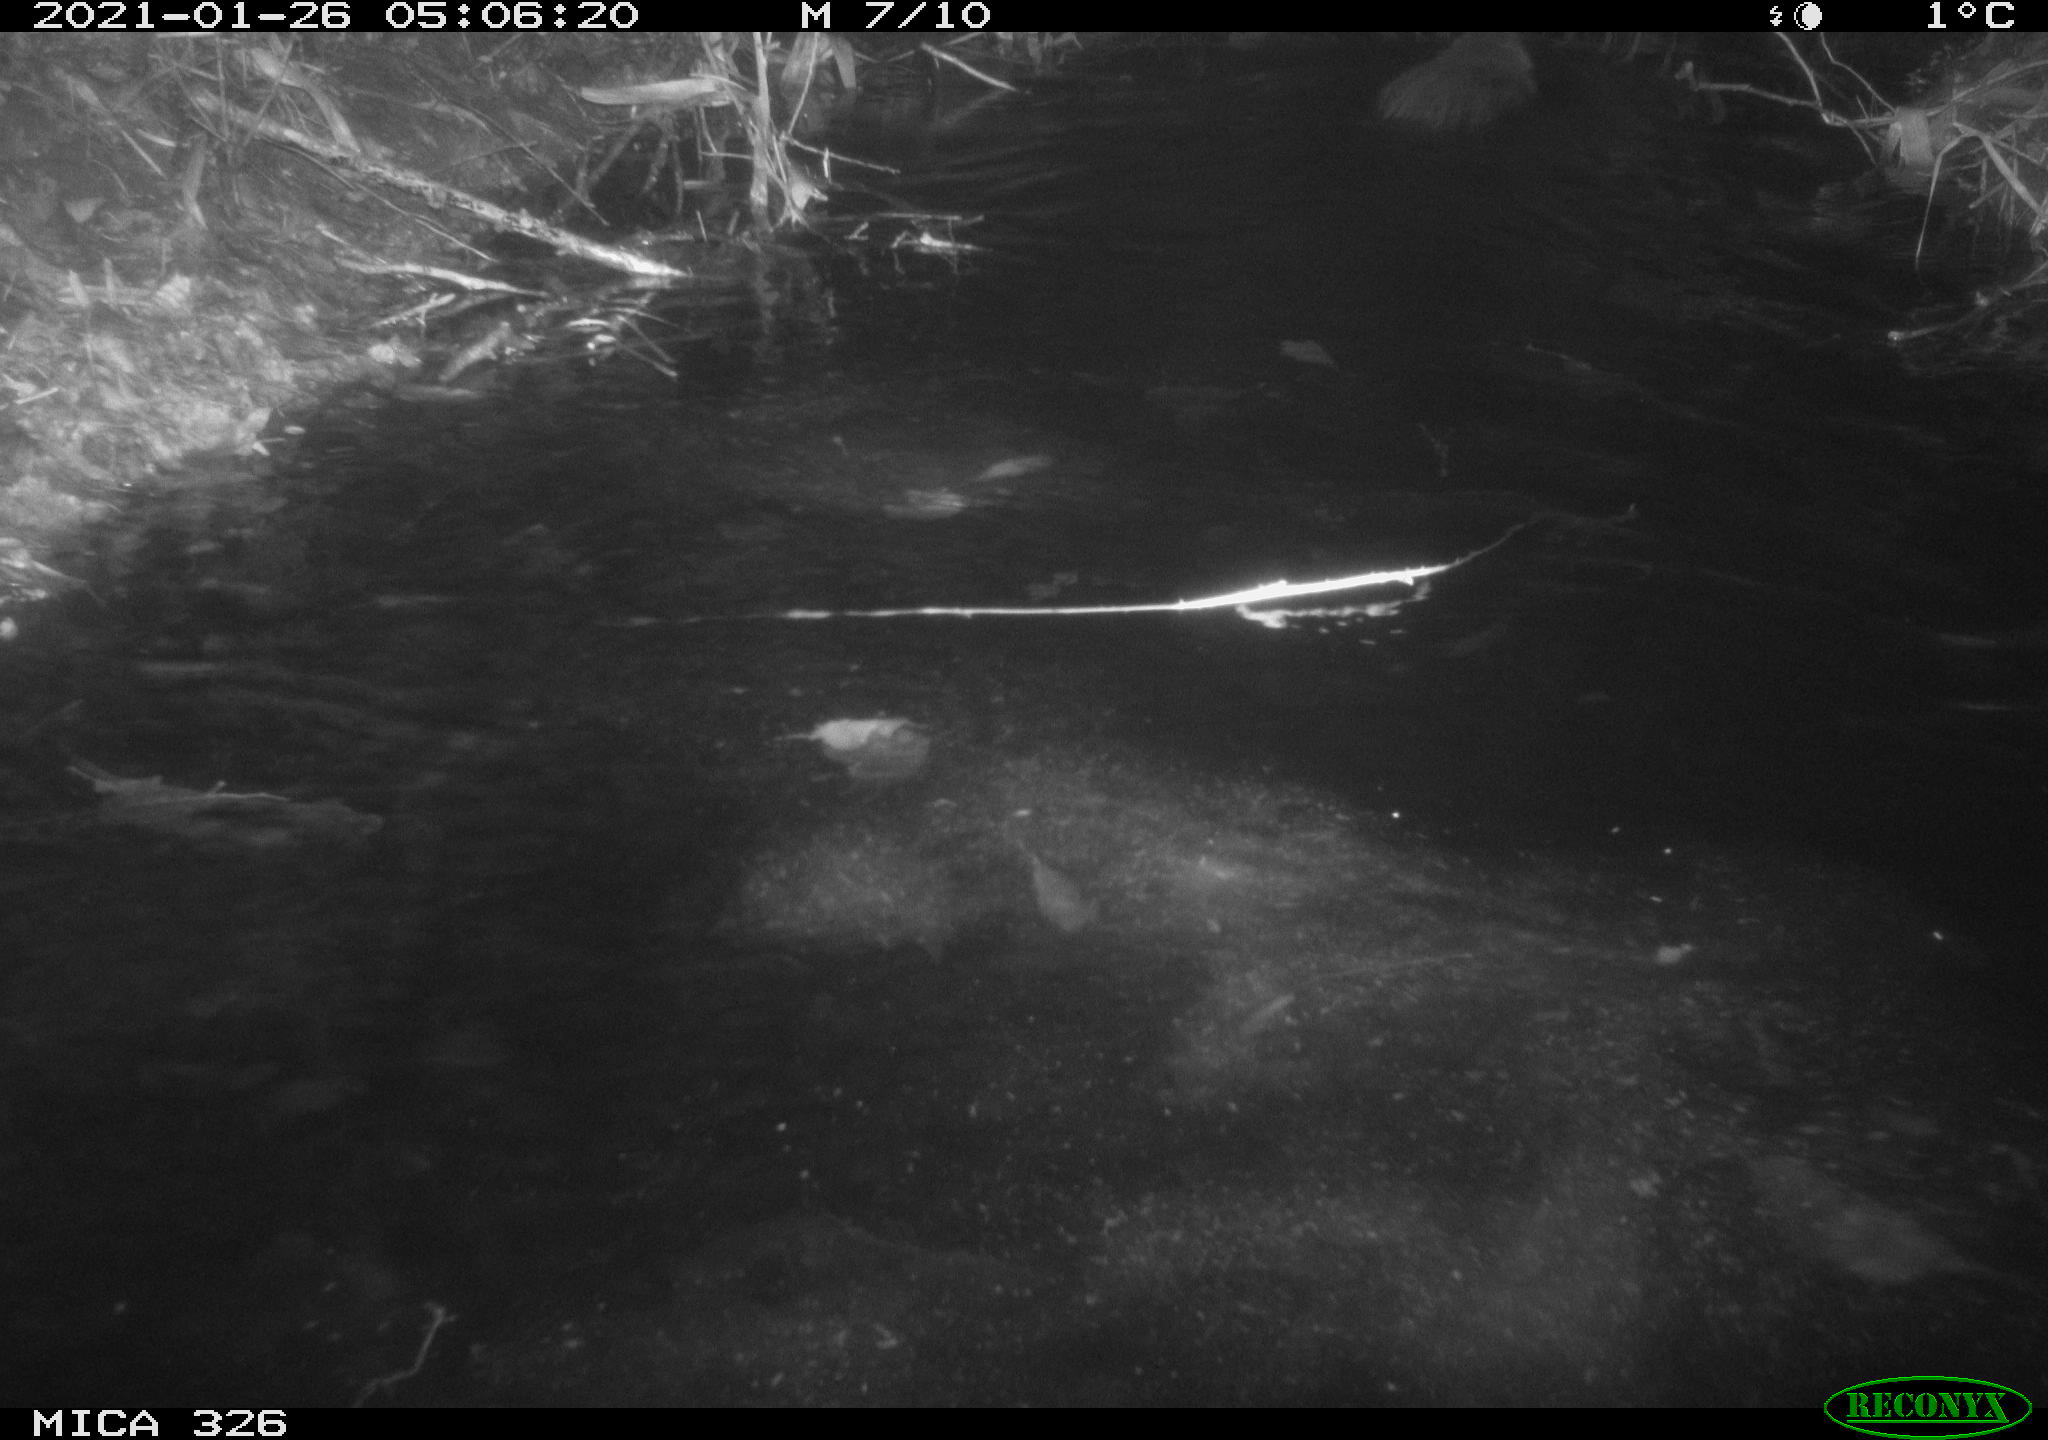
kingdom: Animalia
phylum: Chordata
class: Mammalia
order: Rodentia
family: Myocastoridae
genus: Myocastor
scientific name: Myocastor coypus
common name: Coypu
